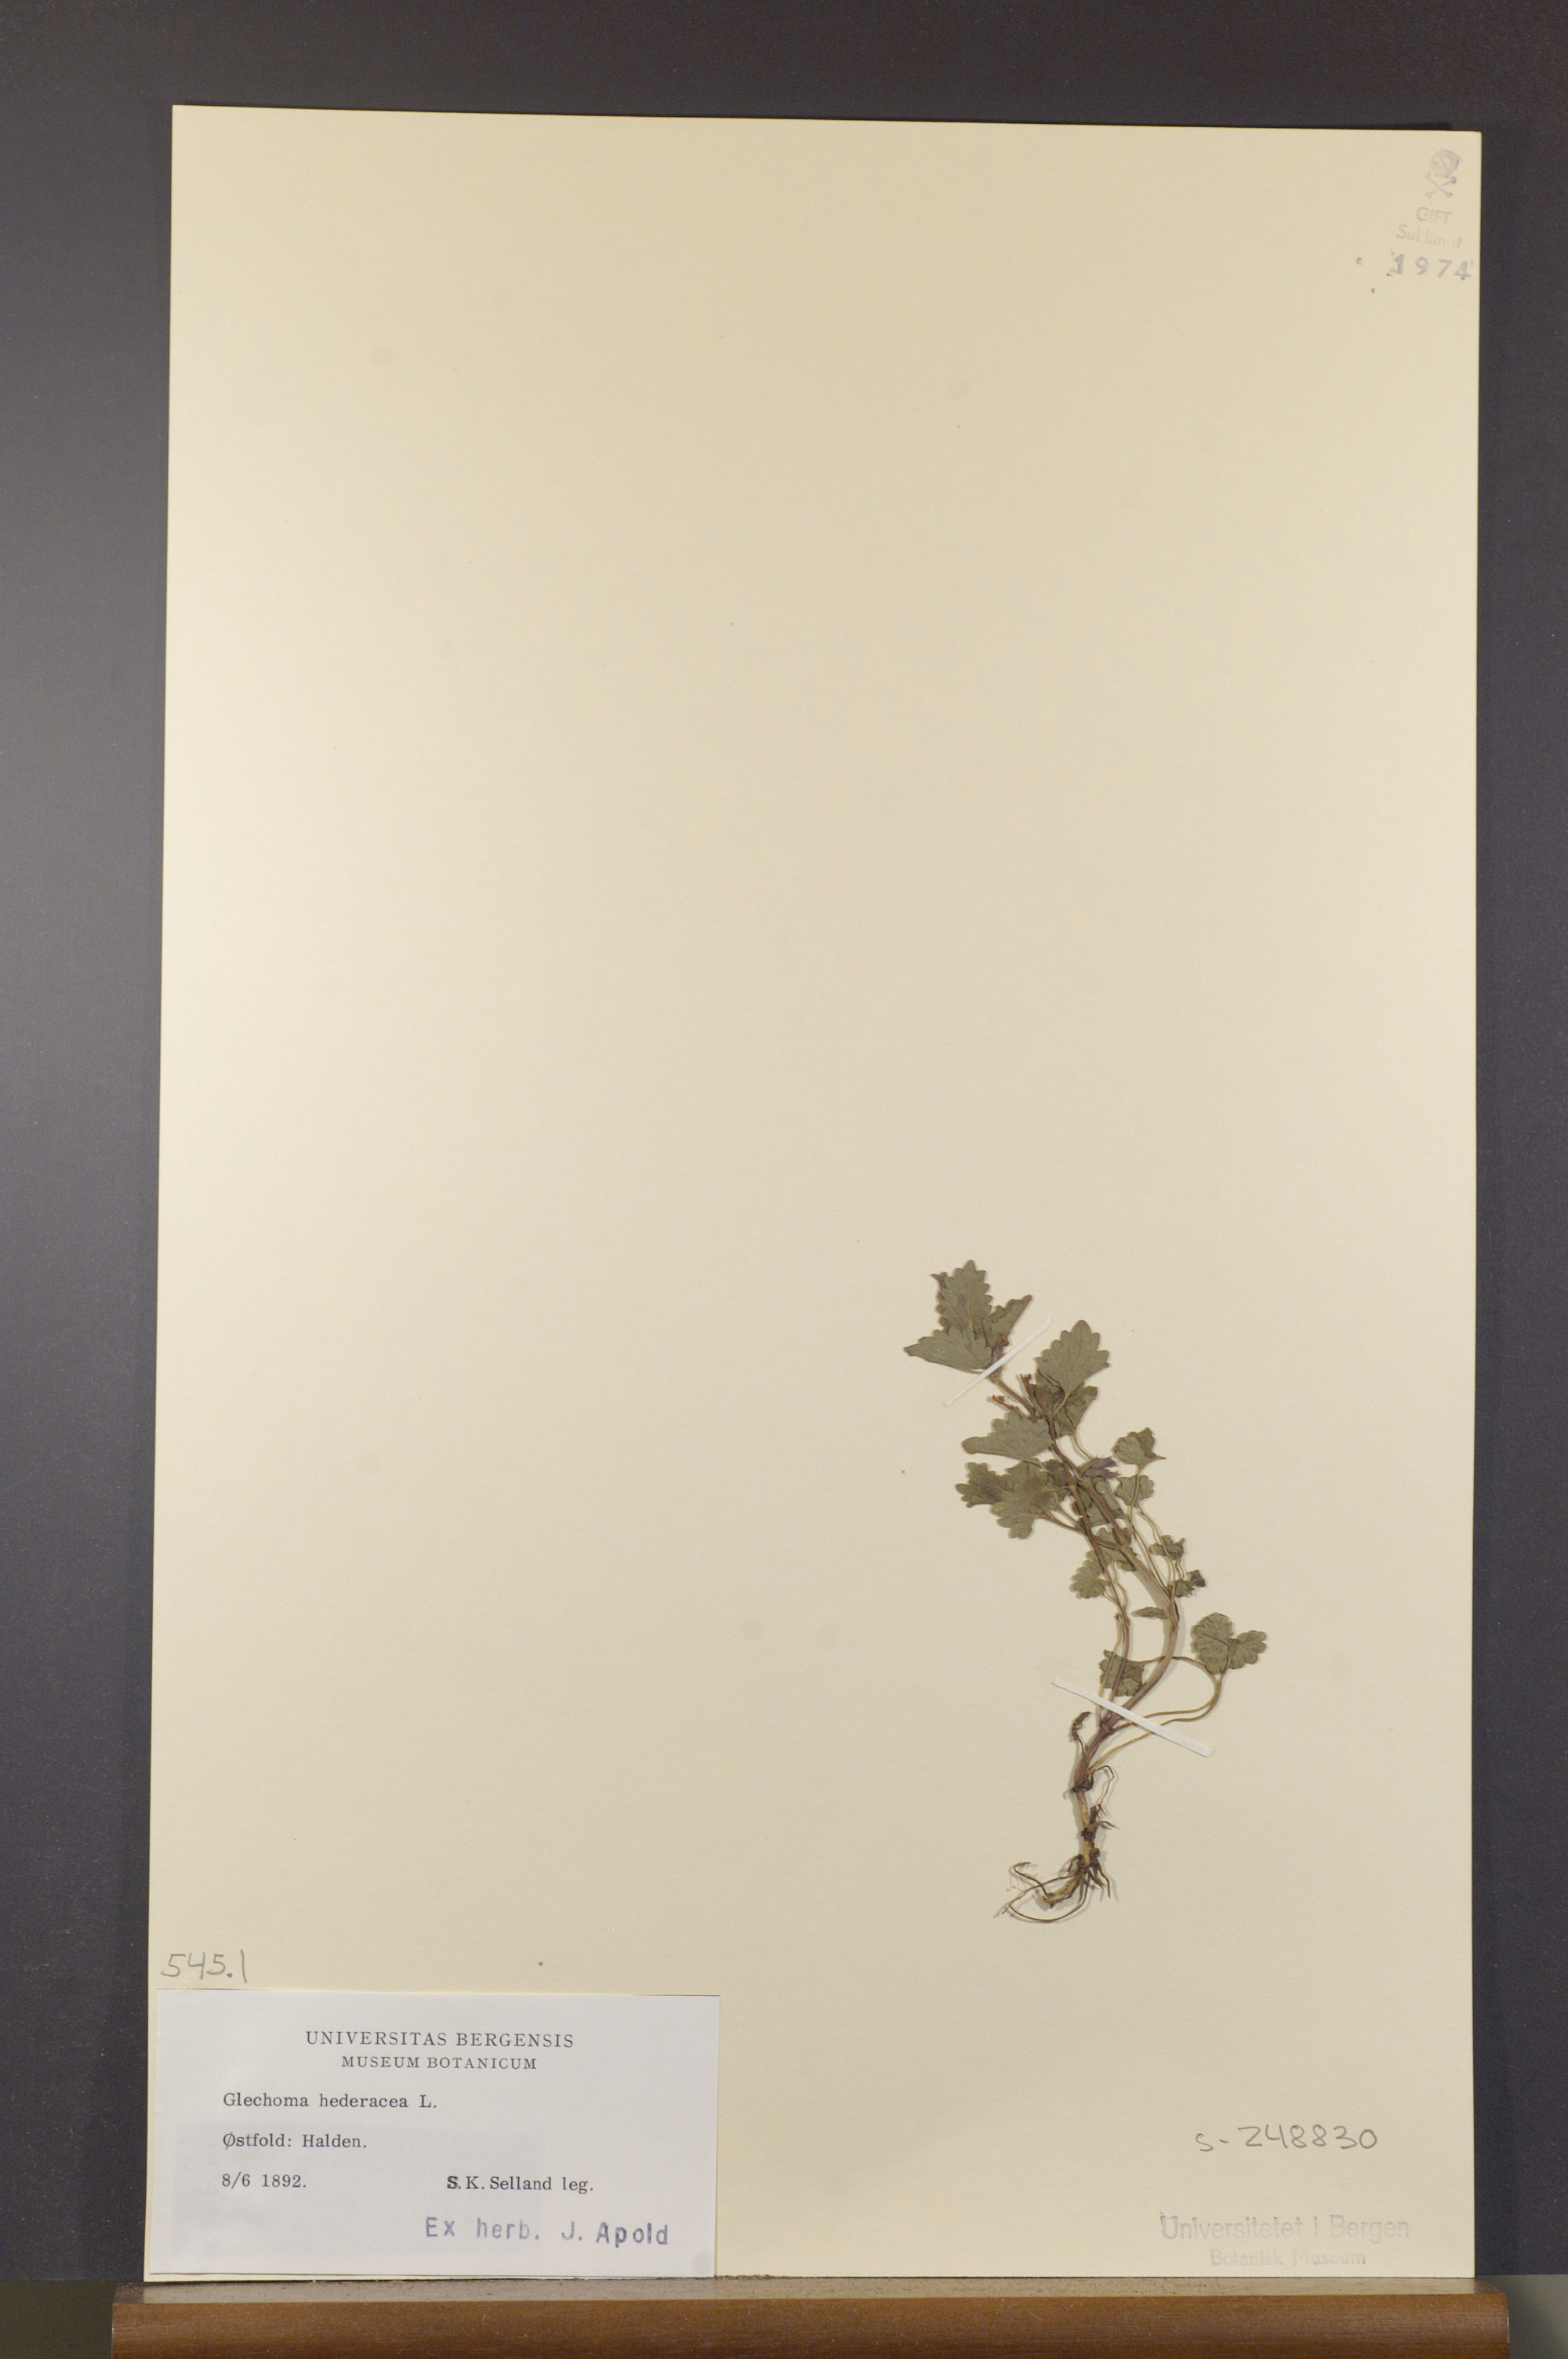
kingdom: Plantae
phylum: Tracheophyta
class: Magnoliopsida
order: Lamiales
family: Lamiaceae
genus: Glechoma
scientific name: Glechoma hederacea
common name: Ground ivy
